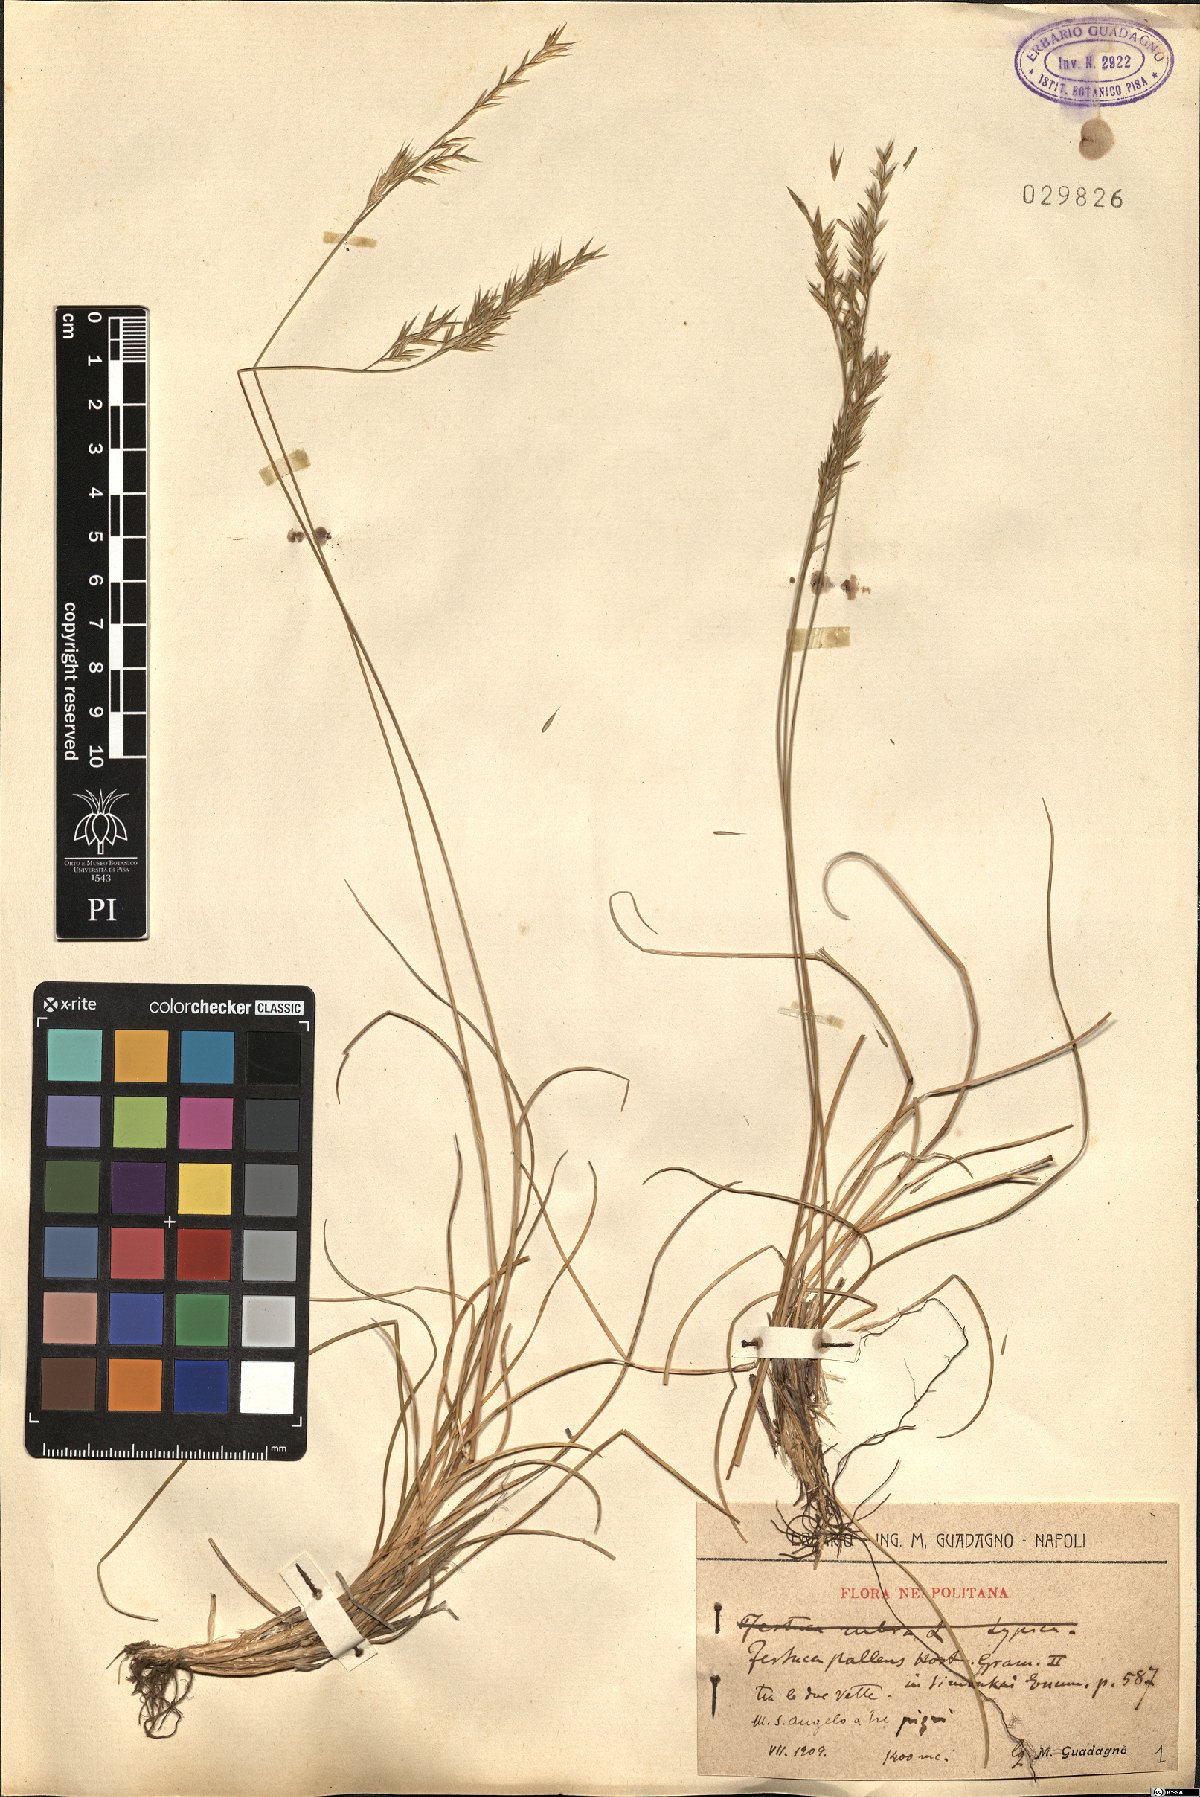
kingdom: Plantae
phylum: Tracheophyta
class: Liliopsida
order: Poales
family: Poaceae
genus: Festuca
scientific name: Festuca circummediterranea
